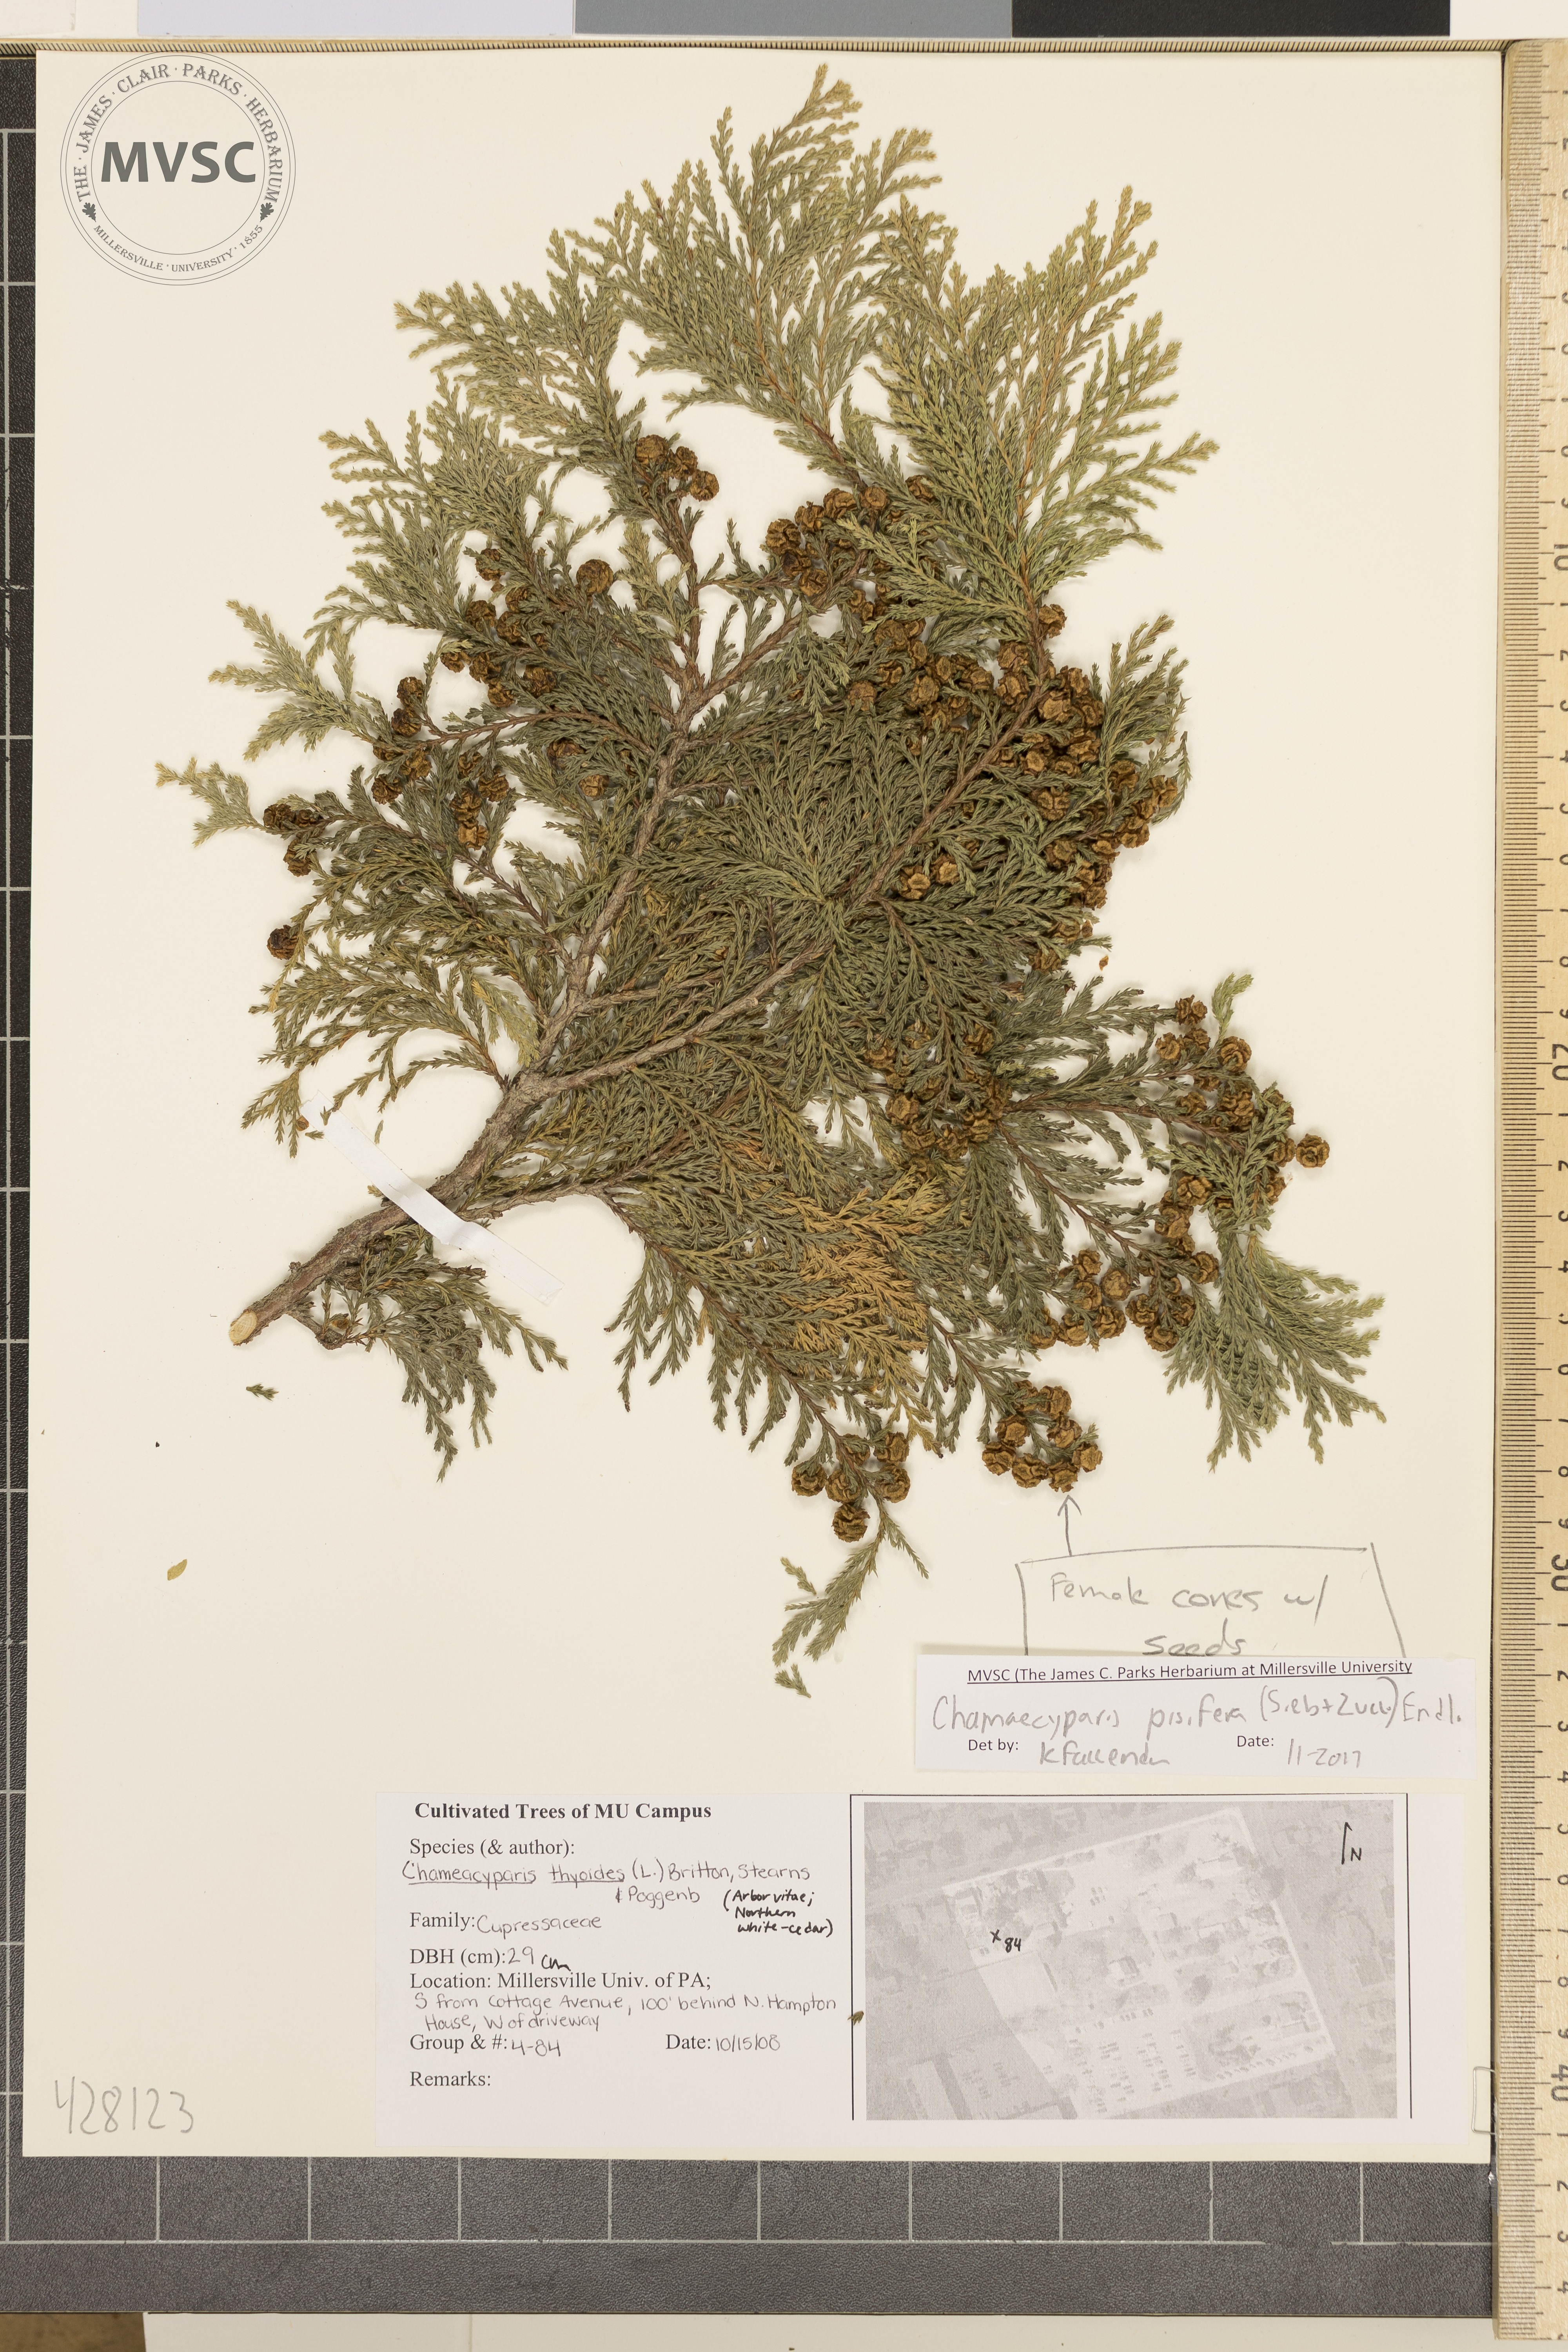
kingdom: Plantae
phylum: Tracheophyta
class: Pinopsida
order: Pinales
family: Cupressaceae
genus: Chamaecyparis
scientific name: Chamaecyparis pisifera
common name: Sawara cypress
